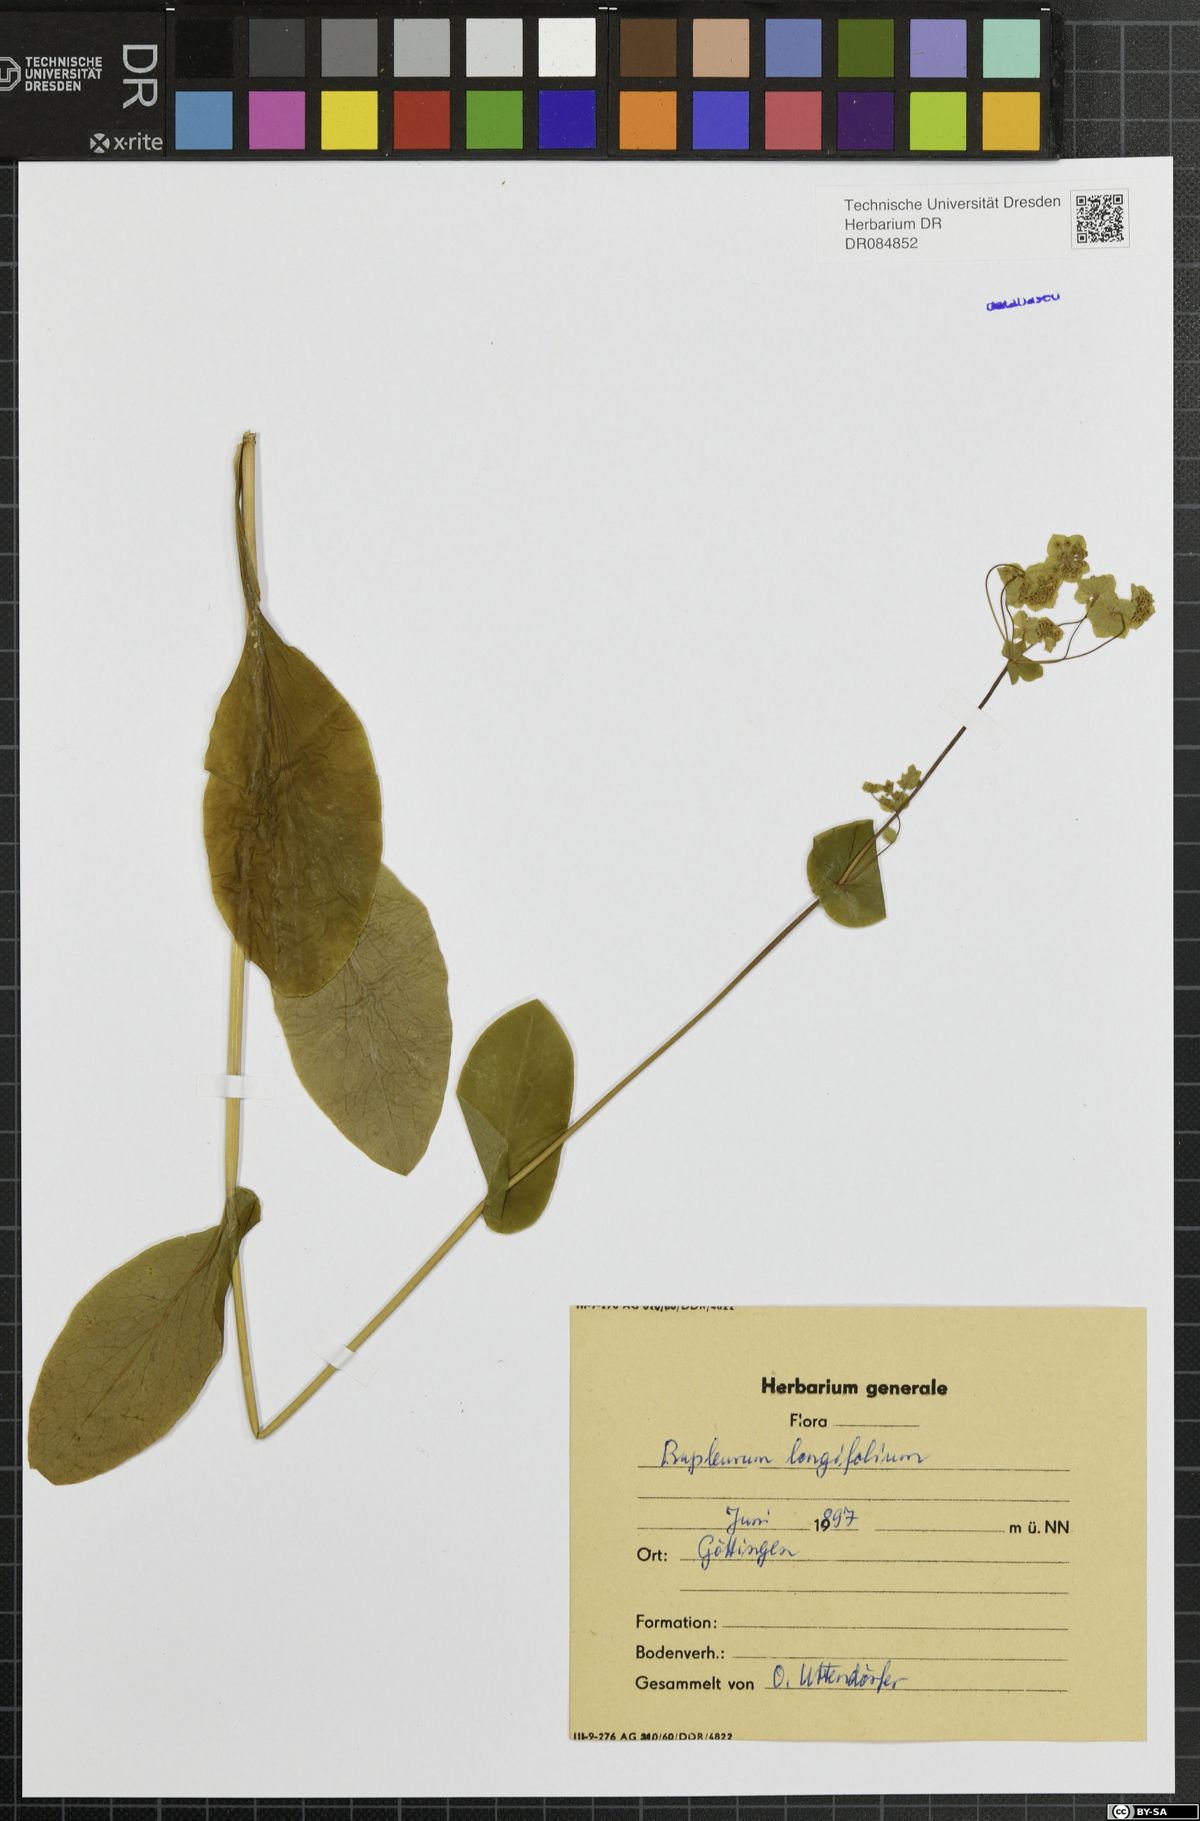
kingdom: Plantae
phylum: Tracheophyta
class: Magnoliopsida
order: Apiales
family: Apiaceae
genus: Bupleurum
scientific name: Bupleurum longifolium
